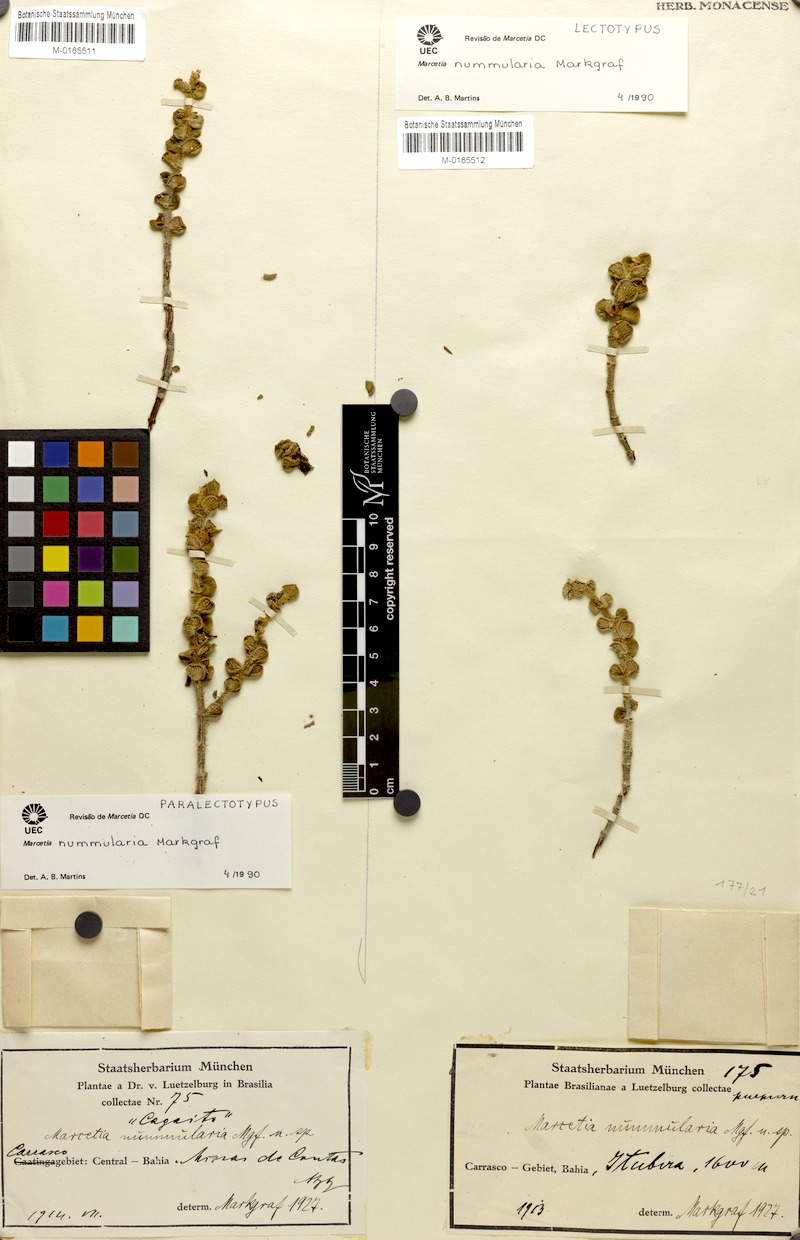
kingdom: Plantae
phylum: Tracheophyta
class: Magnoliopsida
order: Myrtales
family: Melastomataceae
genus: Marcetia
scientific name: Marcetia nummularia
